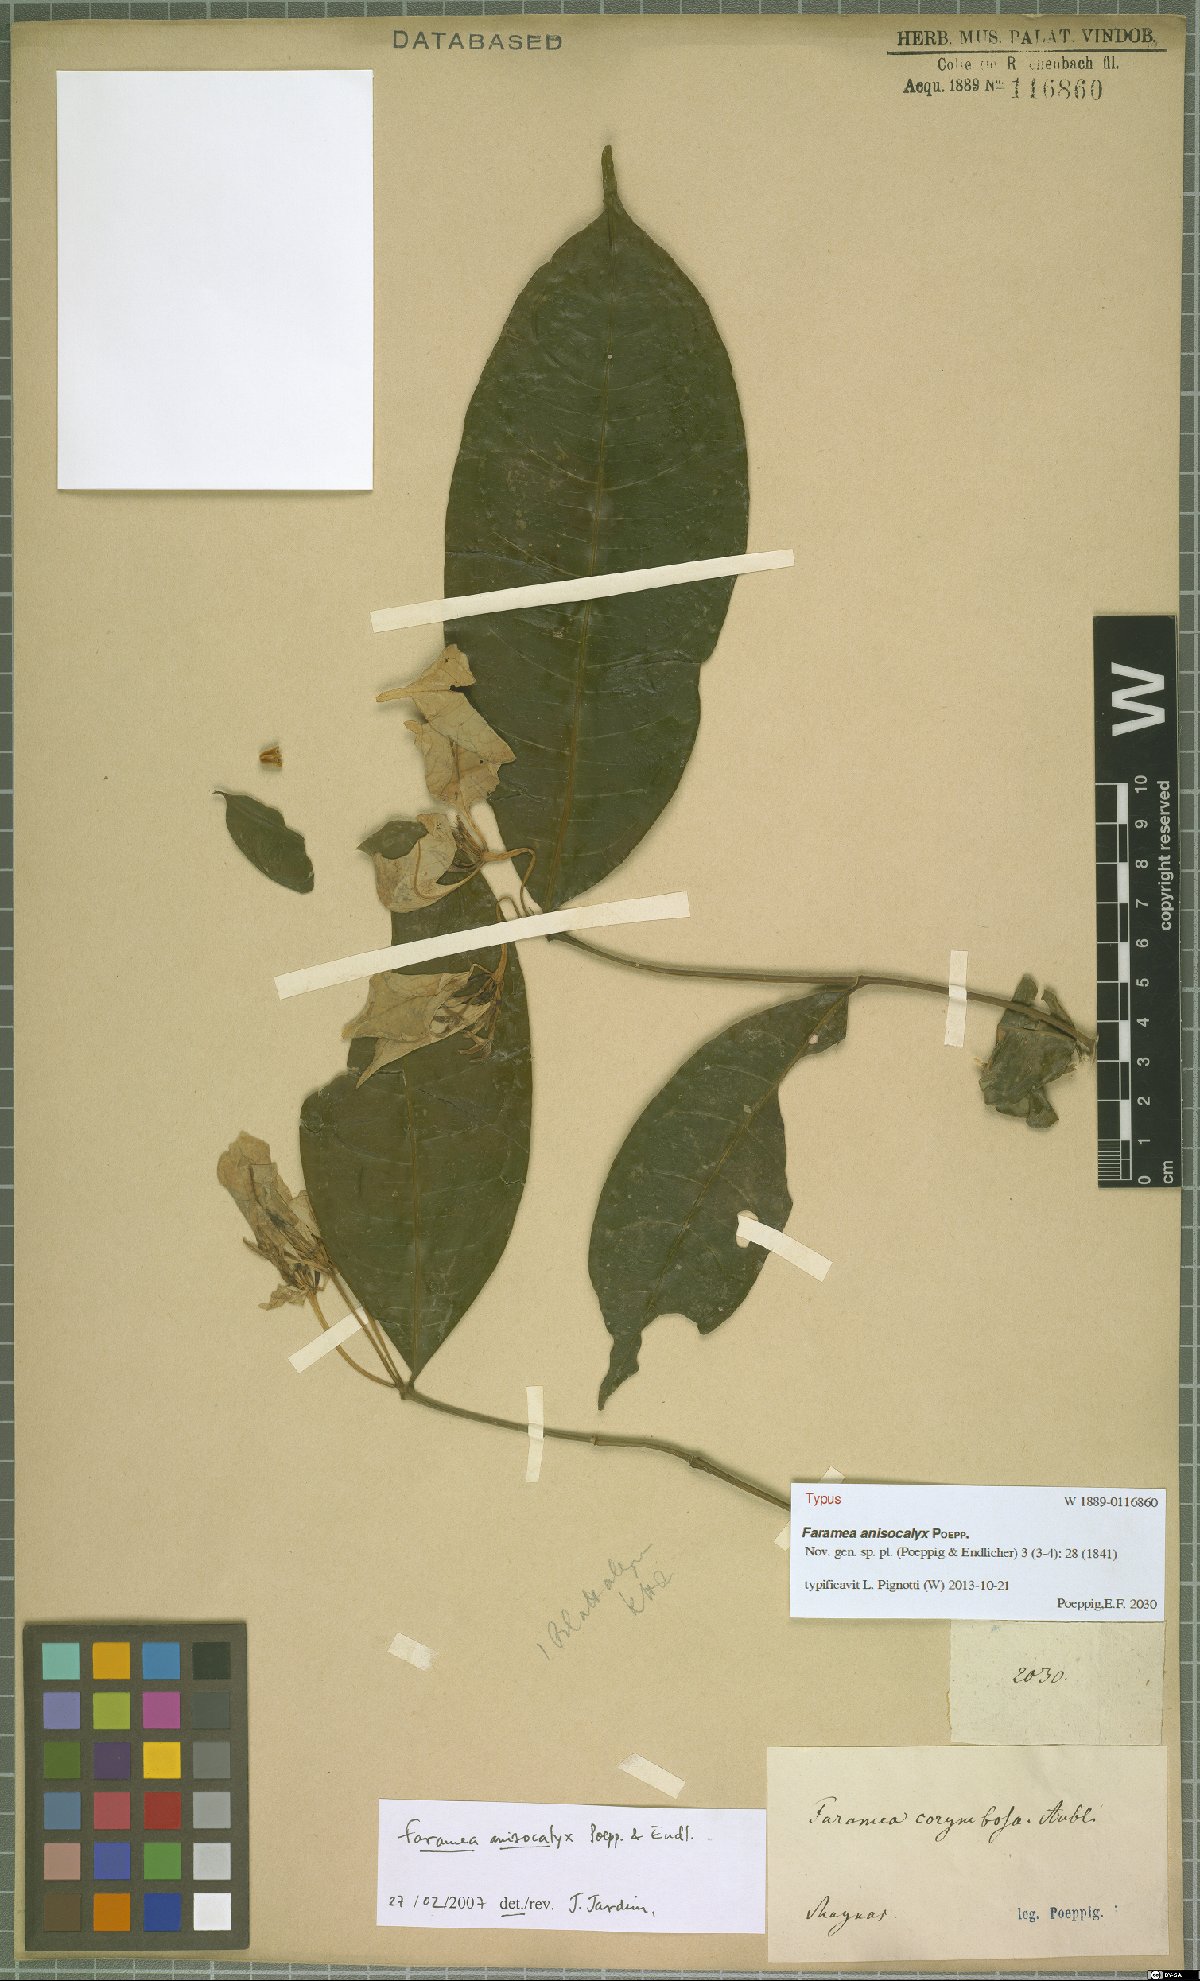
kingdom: Plantae
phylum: Tracheophyta
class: Magnoliopsida
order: Gentianales
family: Rubiaceae
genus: Faramea
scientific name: Faramea anisocalyx
